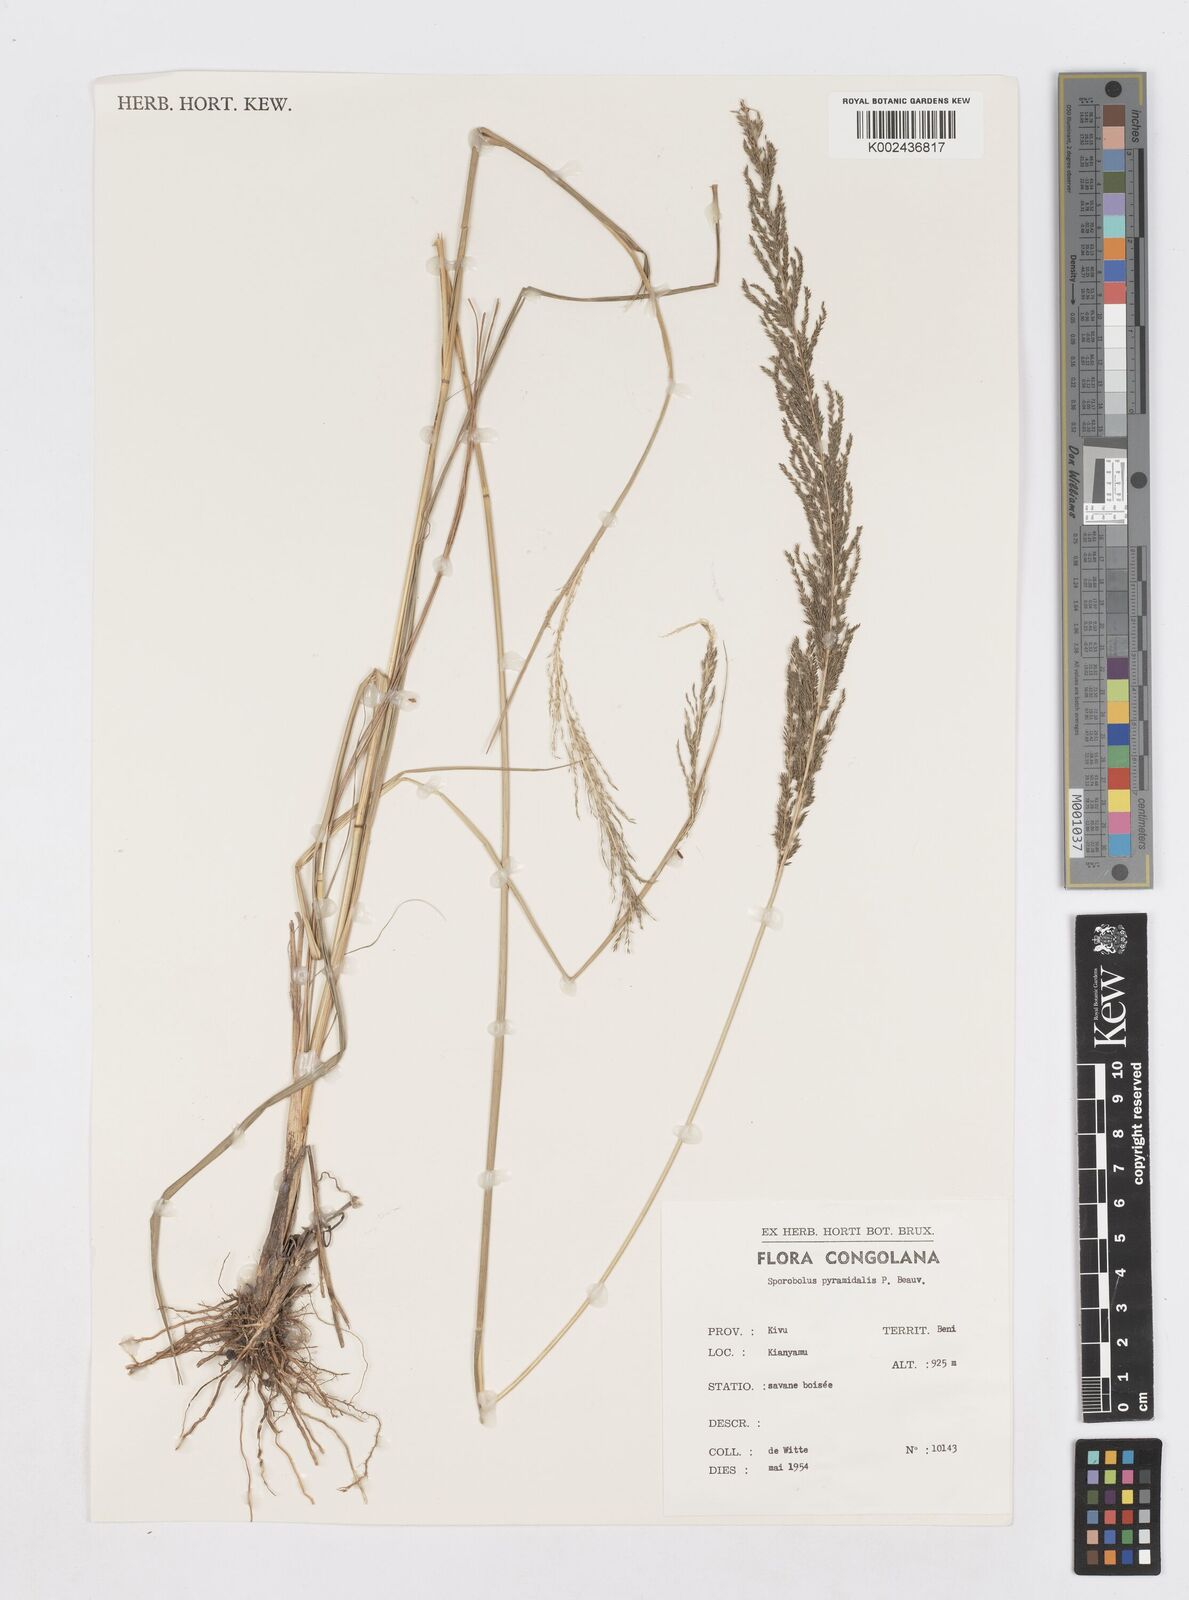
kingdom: Plantae
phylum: Tracheophyta
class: Liliopsida
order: Poales
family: Poaceae
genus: Sporobolus
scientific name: Sporobolus pyramidalis
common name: West indian dropseed
